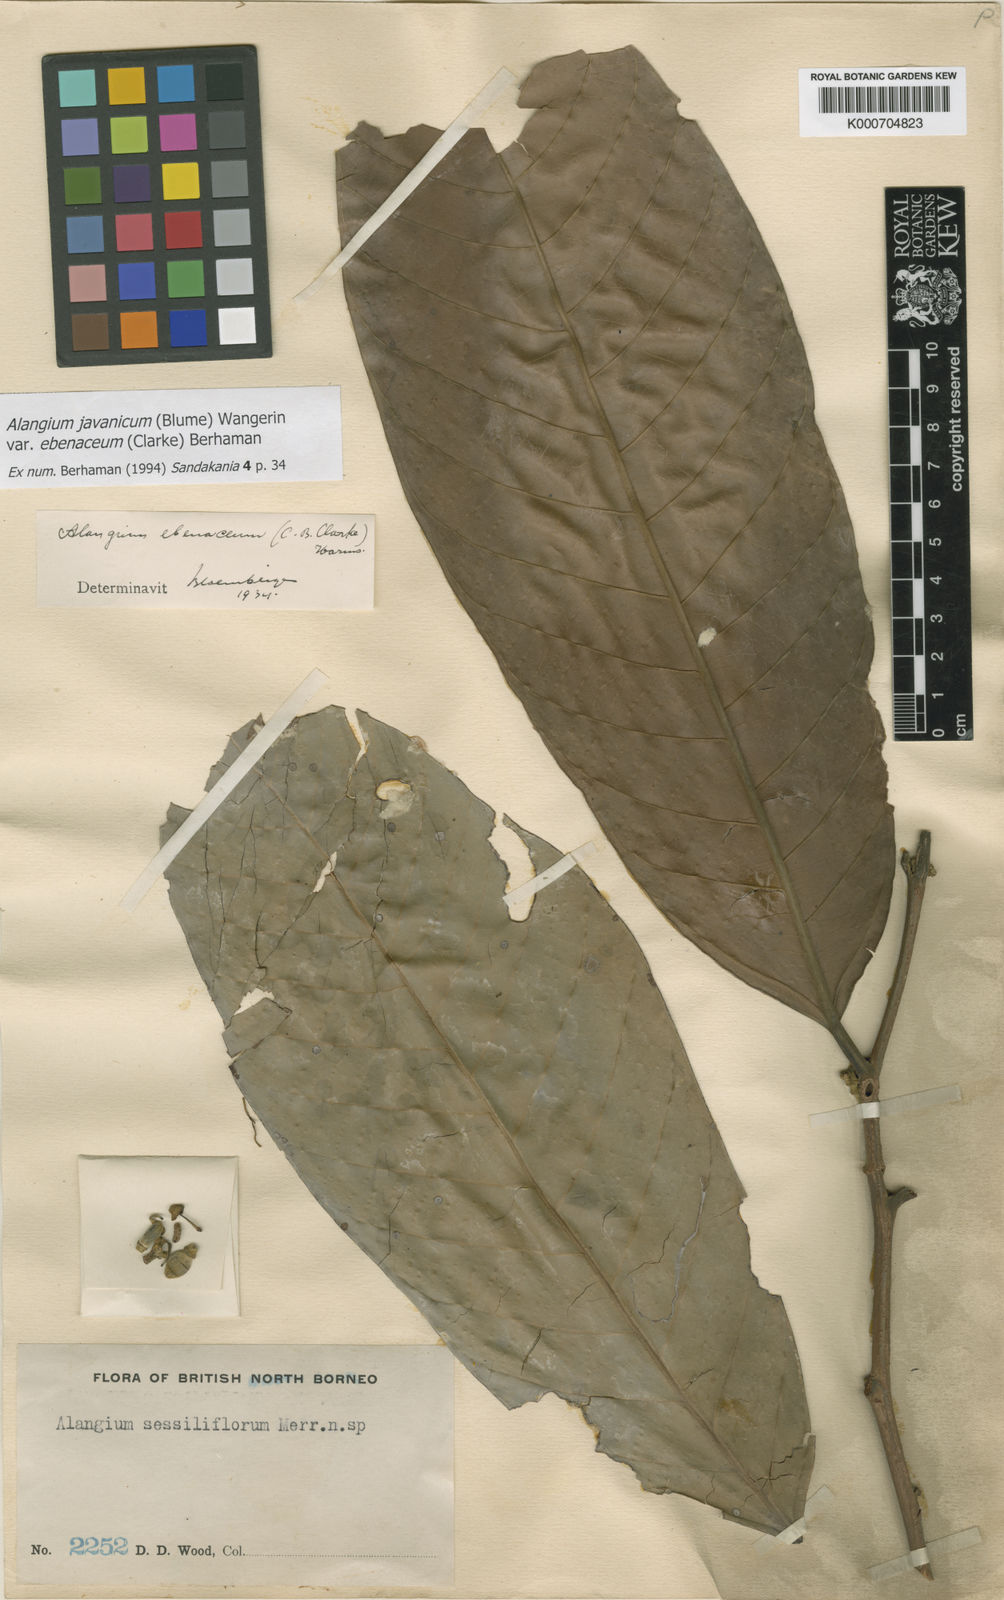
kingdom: Plantae
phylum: Tracheophyta
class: Magnoliopsida
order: Cornales
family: Cornaceae
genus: Alangium
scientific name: Alangium ebenaceum
